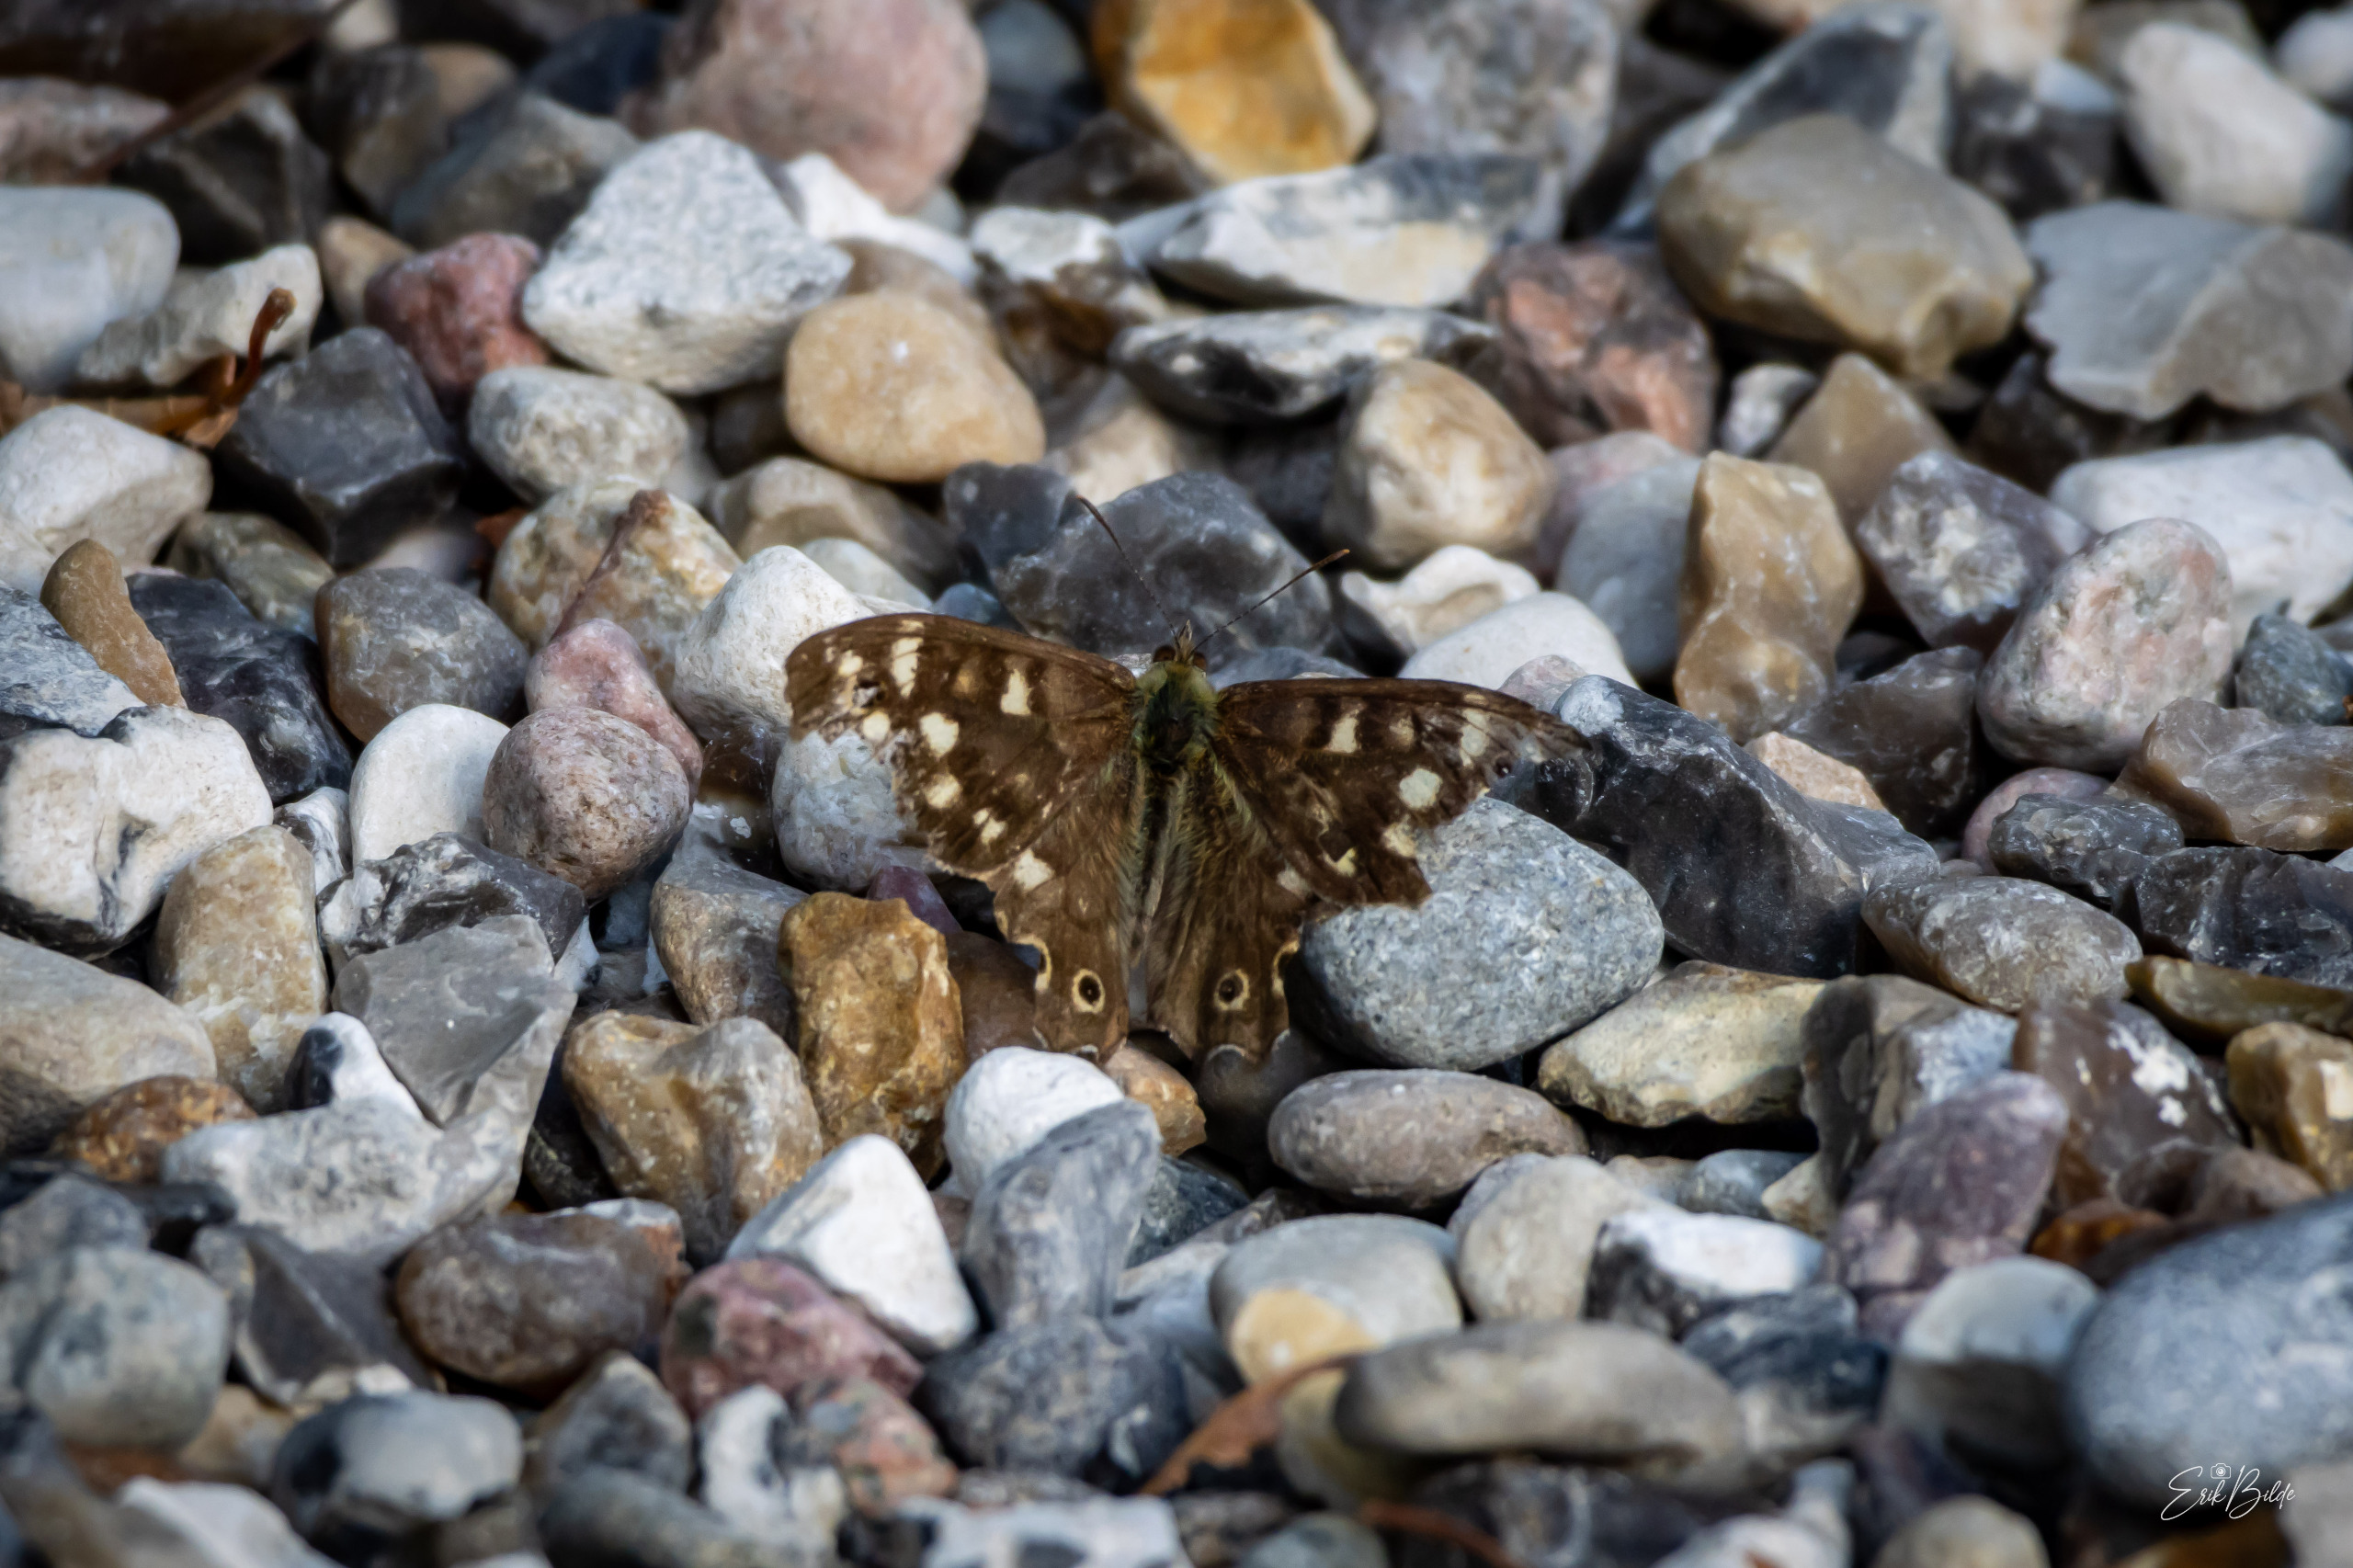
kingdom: Animalia
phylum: Arthropoda
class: Insecta
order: Lepidoptera
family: Nymphalidae
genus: Pararge
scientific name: Pararge aegeria
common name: Skovrandøje
